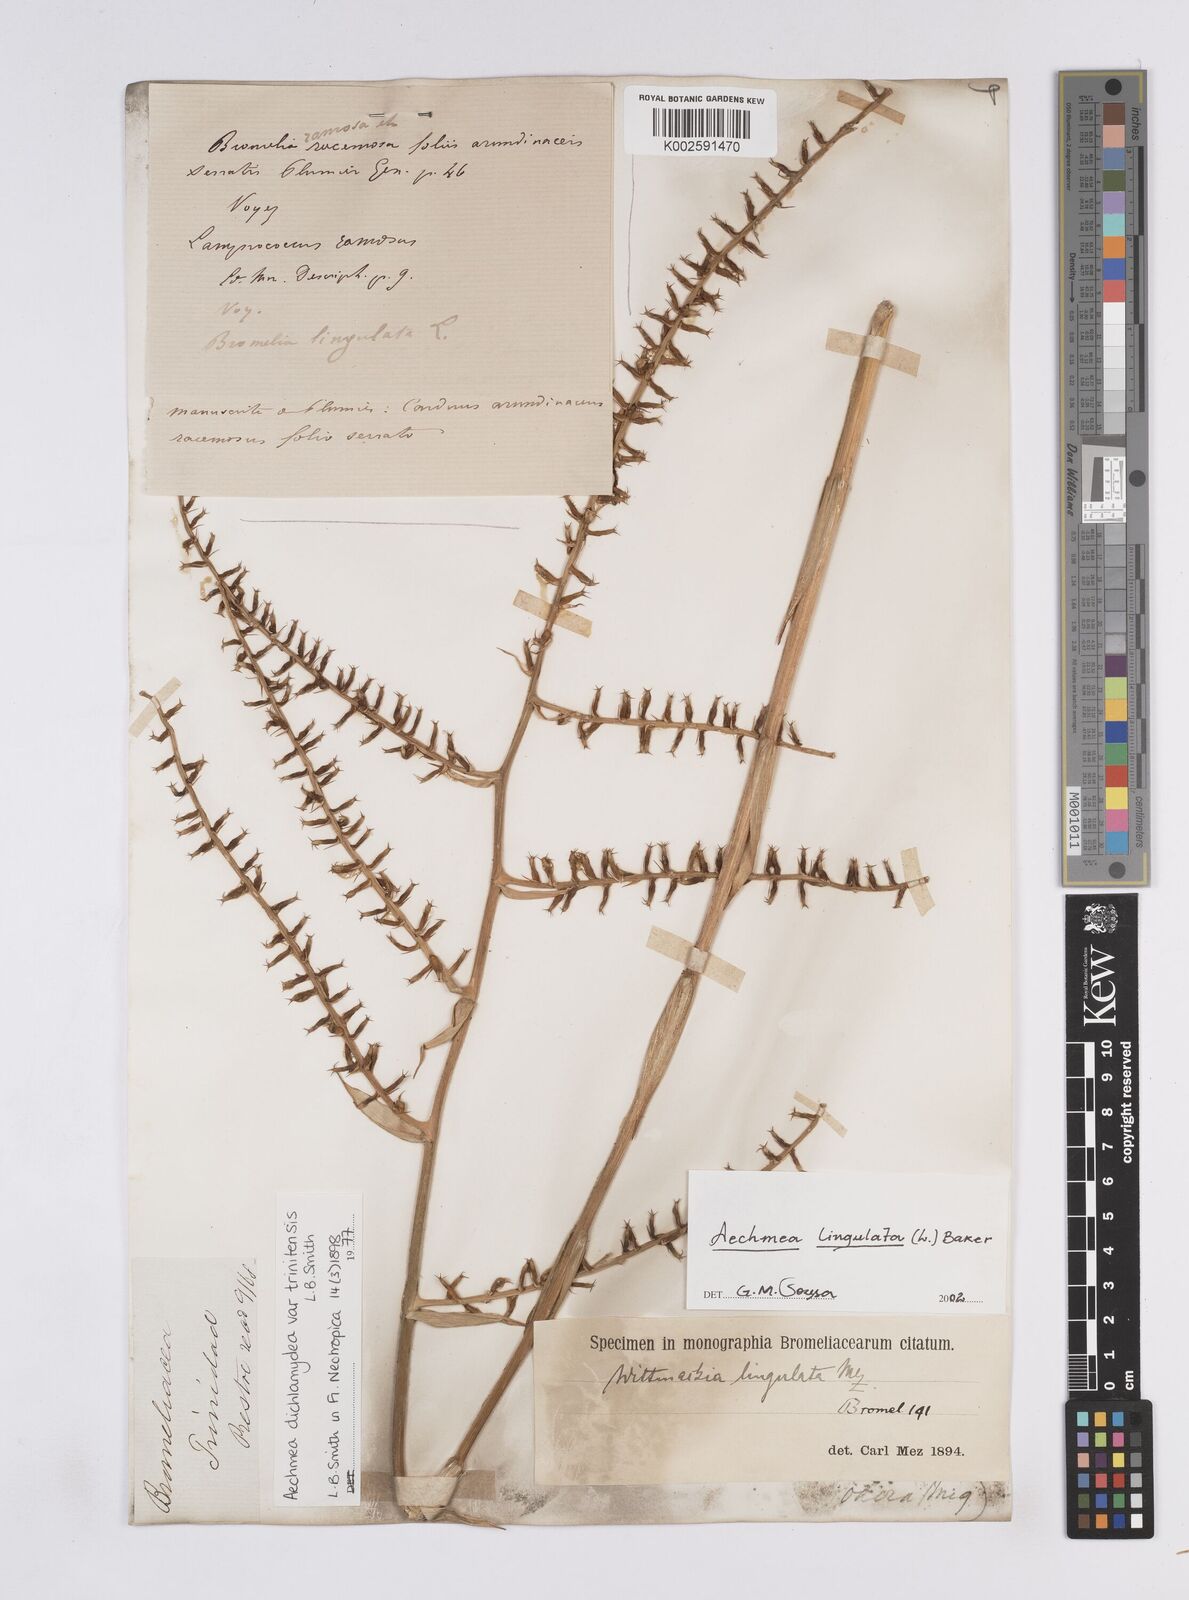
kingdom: Plantae
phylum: Tracheophyta
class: Liliopsida
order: Poales
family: Bromeliaceae
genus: Aechmea
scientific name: Aechmea dichlamydea
